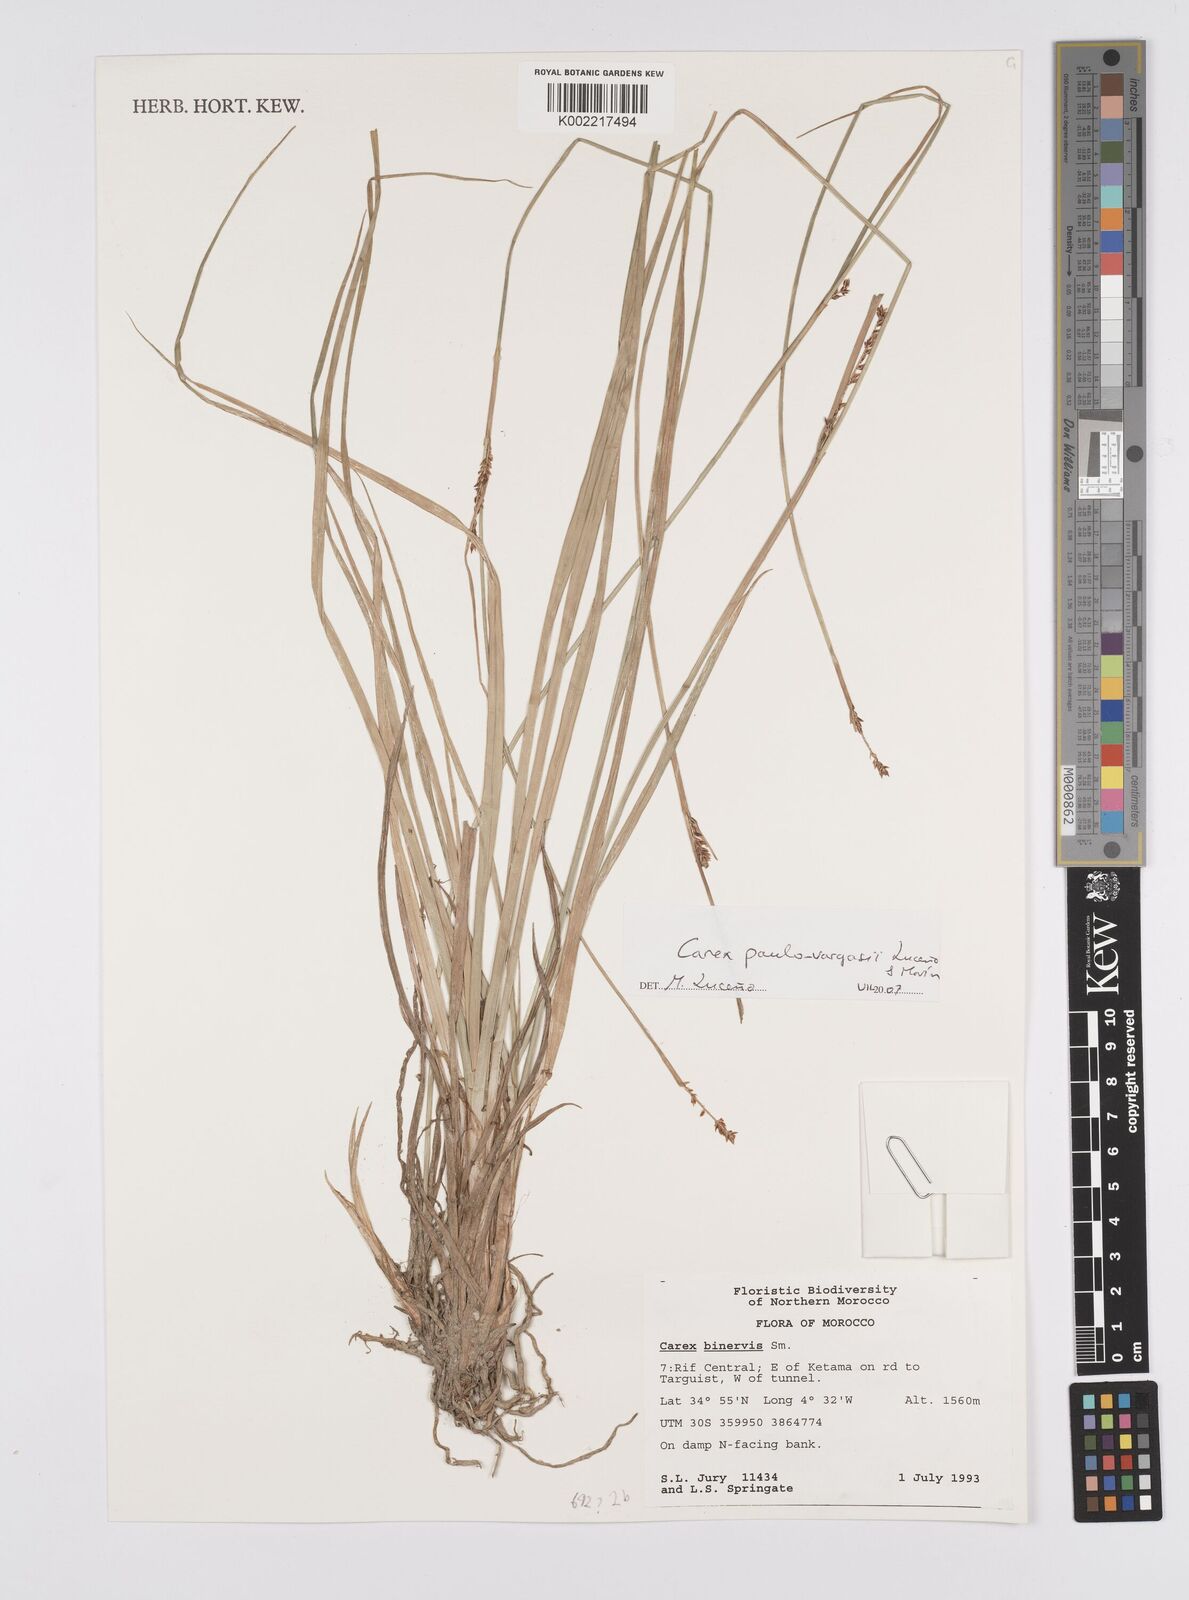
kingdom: Plantae
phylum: Tracheophyta
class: Liliopsida
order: Poales
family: Cyperaceae
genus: Carex
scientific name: Carex paulo-vargasii
